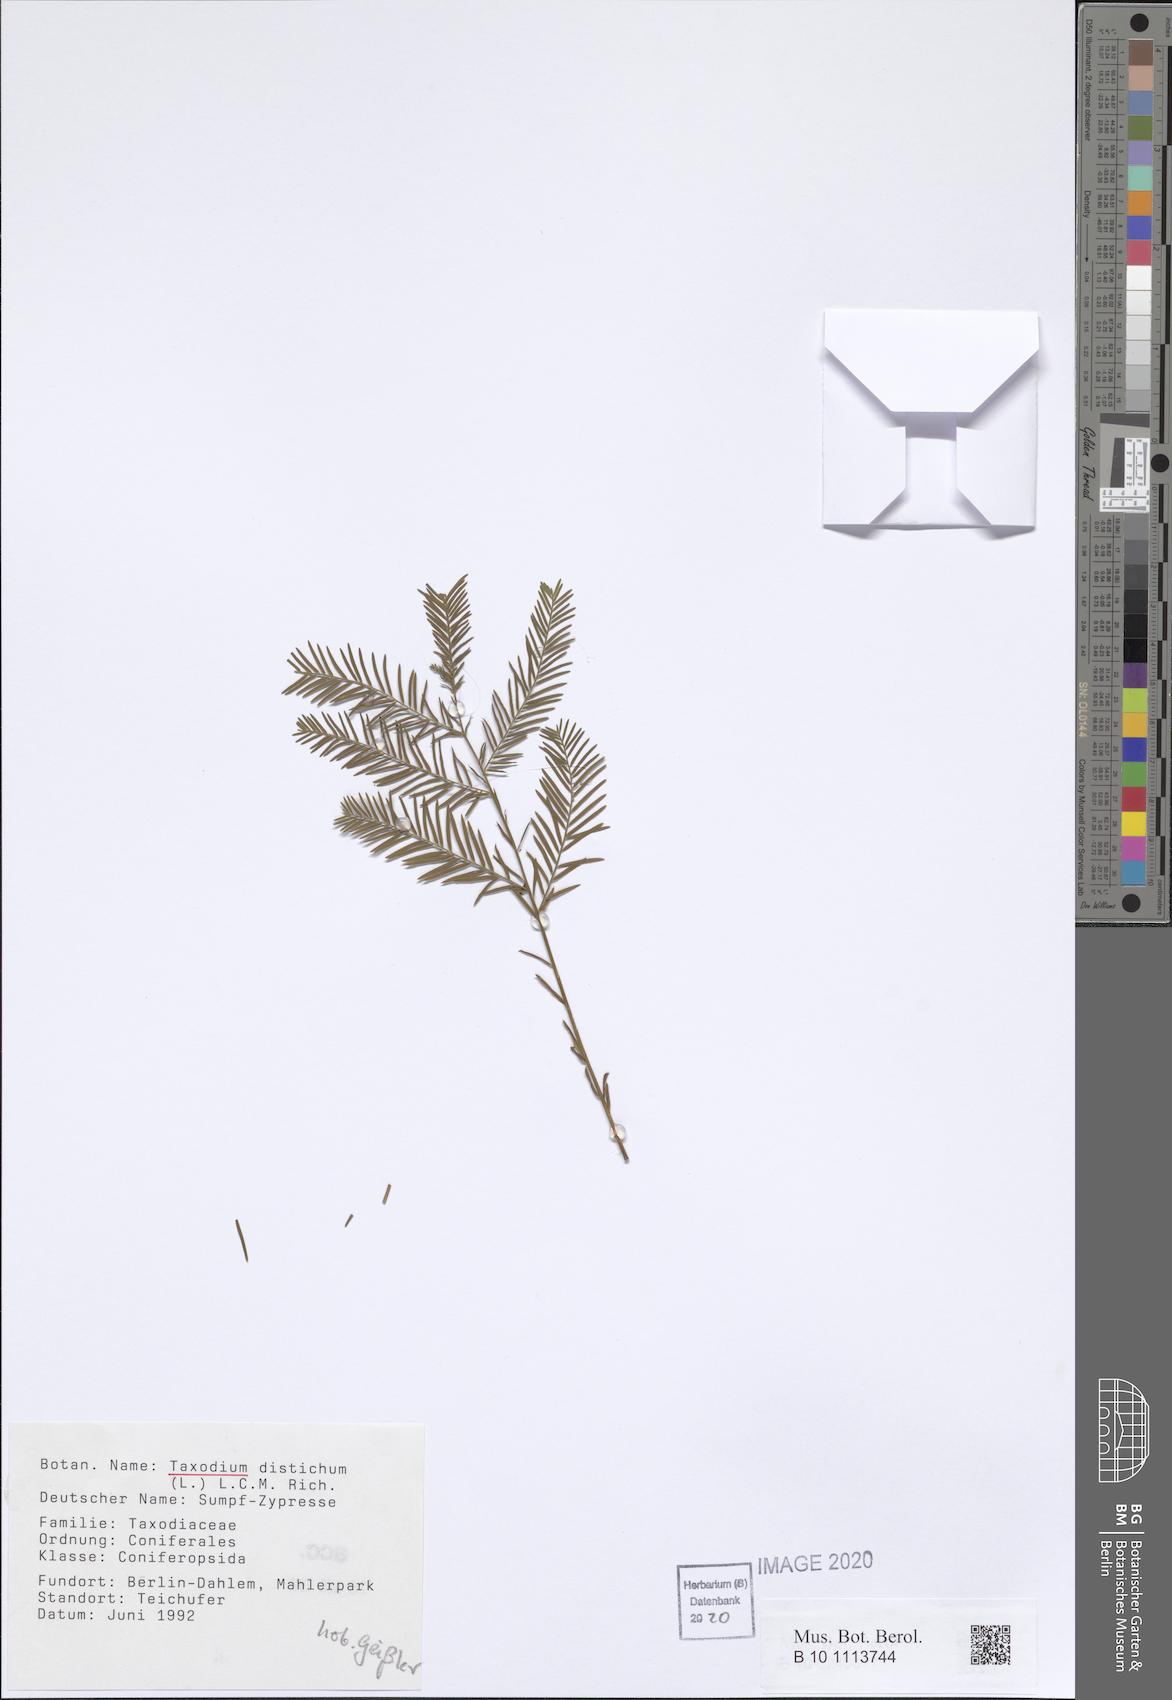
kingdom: Plantae
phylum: Tracheophyta
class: Pinopsida
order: Pinales
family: Cupressaceae
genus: Taxodium
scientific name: Taxodium distichum
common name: Bald cypress
